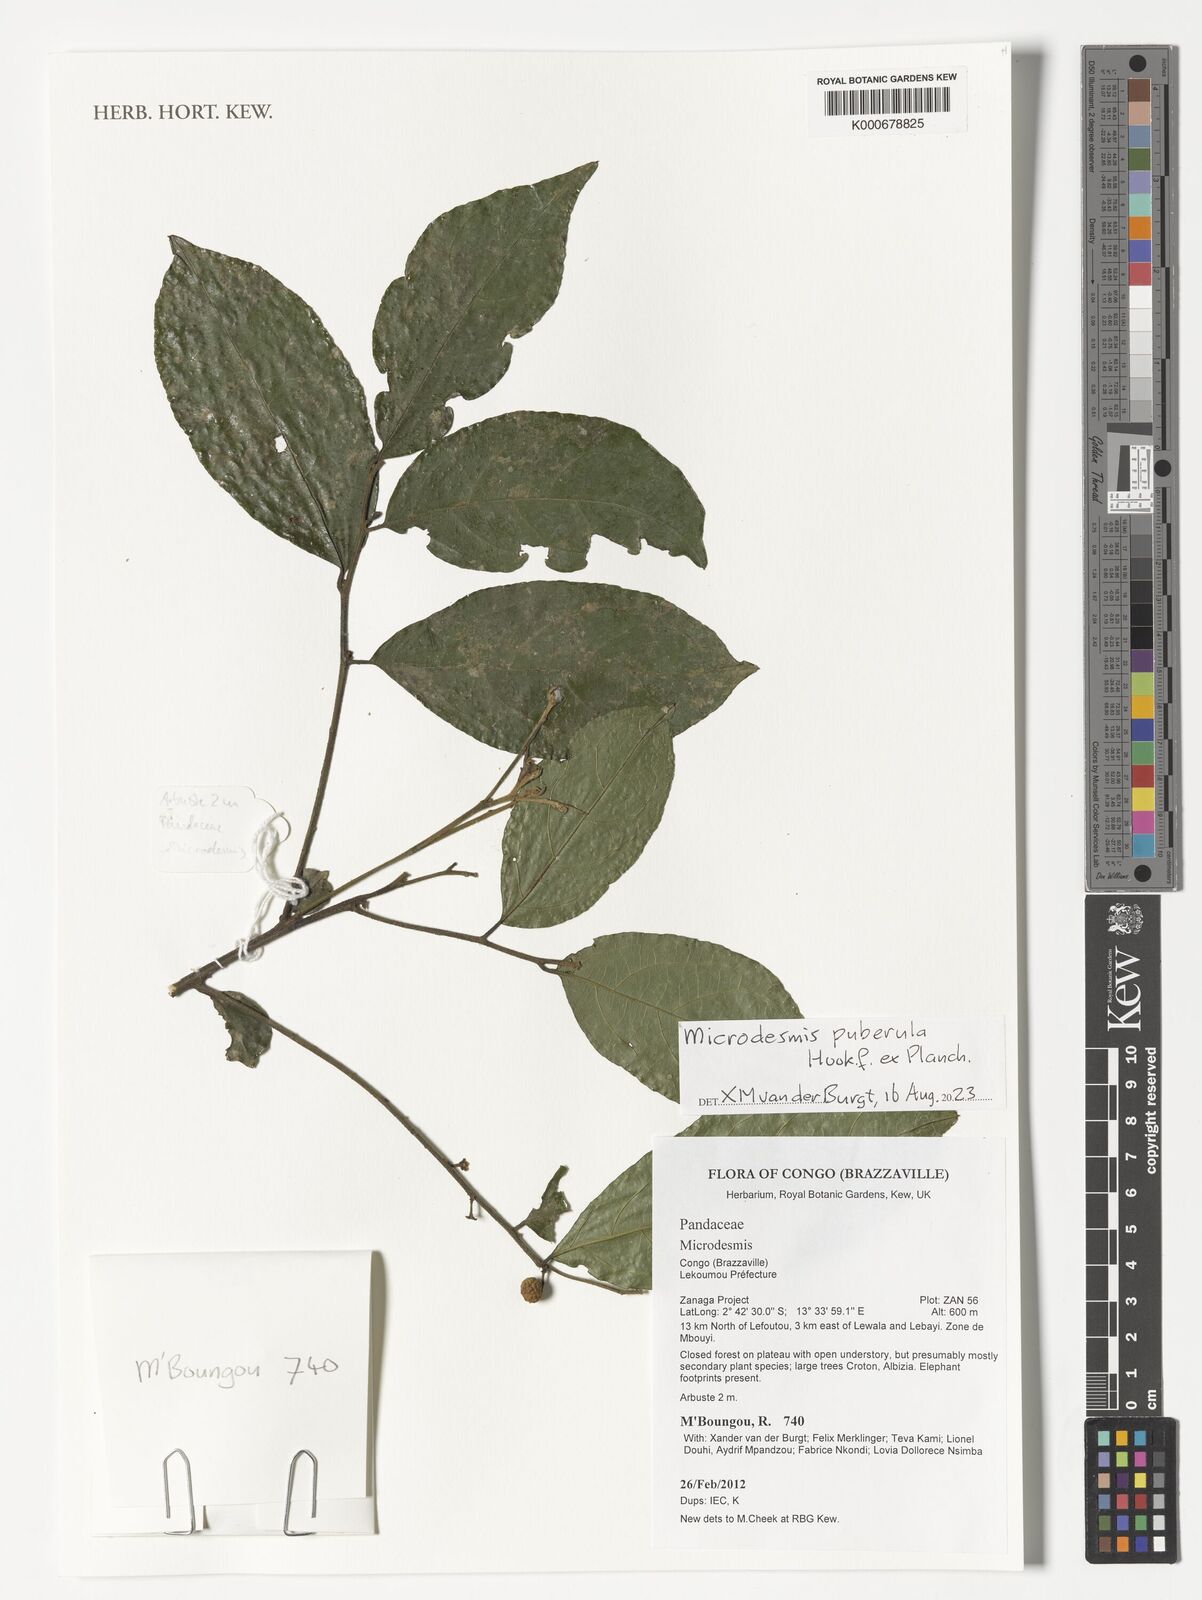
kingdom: Plantae
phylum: Tracheophyta
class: Magnoliopsida
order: Malpighiales
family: Pandaceae
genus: Microdesmis
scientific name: Microdesmis
